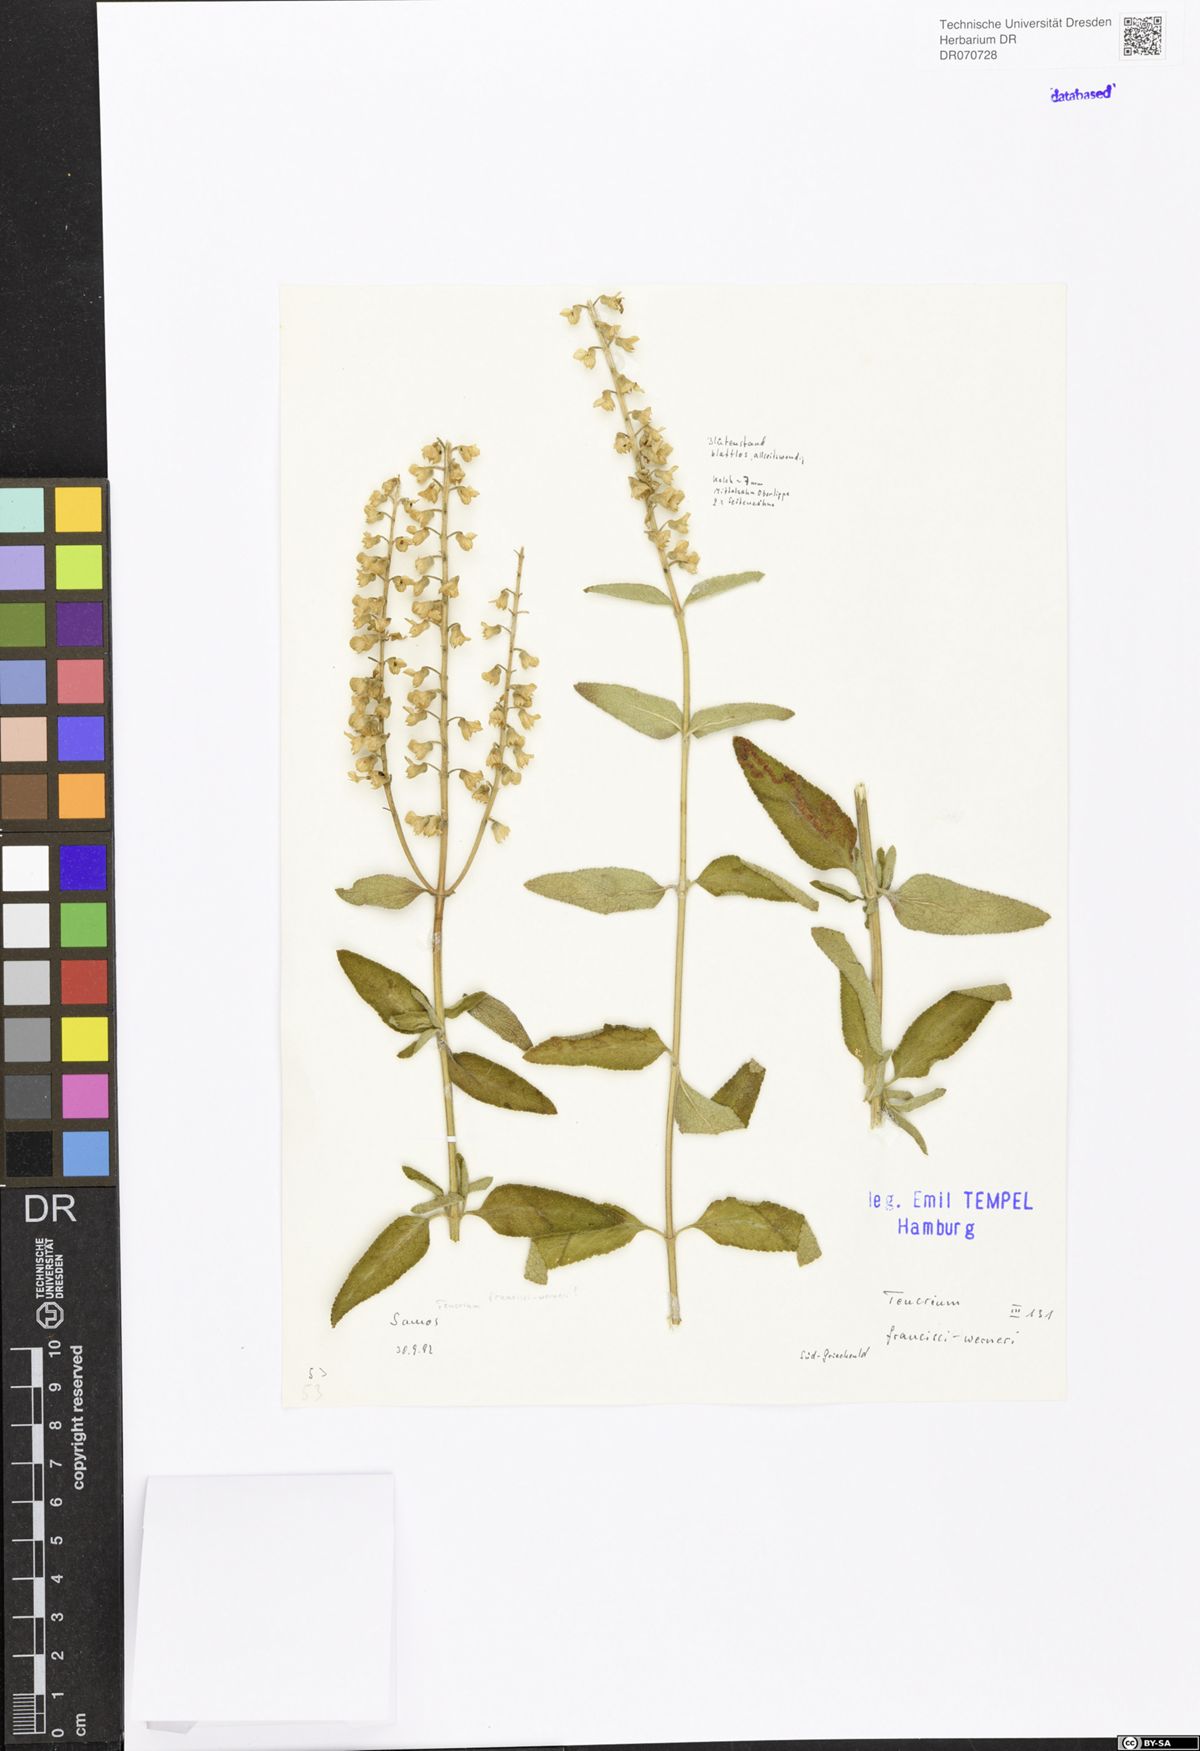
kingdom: Plantae
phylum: Tracheophyta
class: Magnoliopsida
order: Lamiales
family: Lamiaceae
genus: Teucrium
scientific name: Teucrium francisci-werneri
